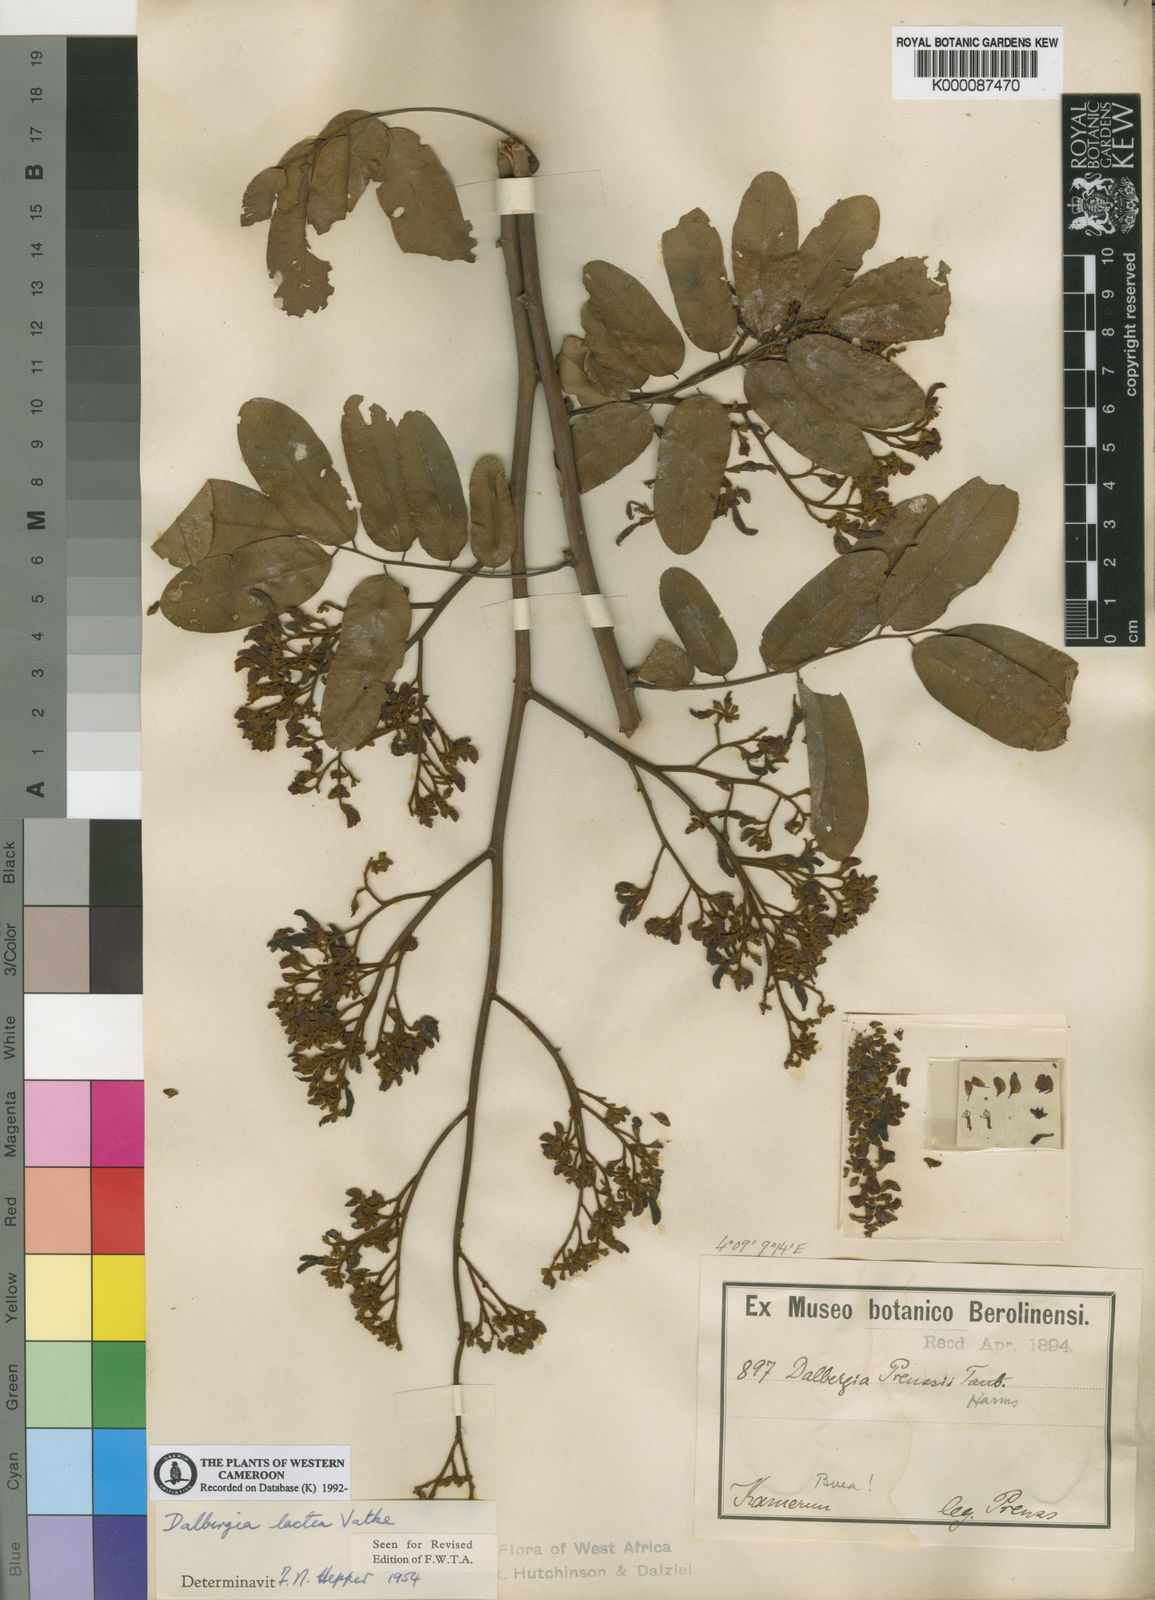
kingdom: Plantae
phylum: Tracheophyta
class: Magnoliopsida
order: Fabales
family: Fabaceae
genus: Dalbergia
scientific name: Dalbergia lactea
